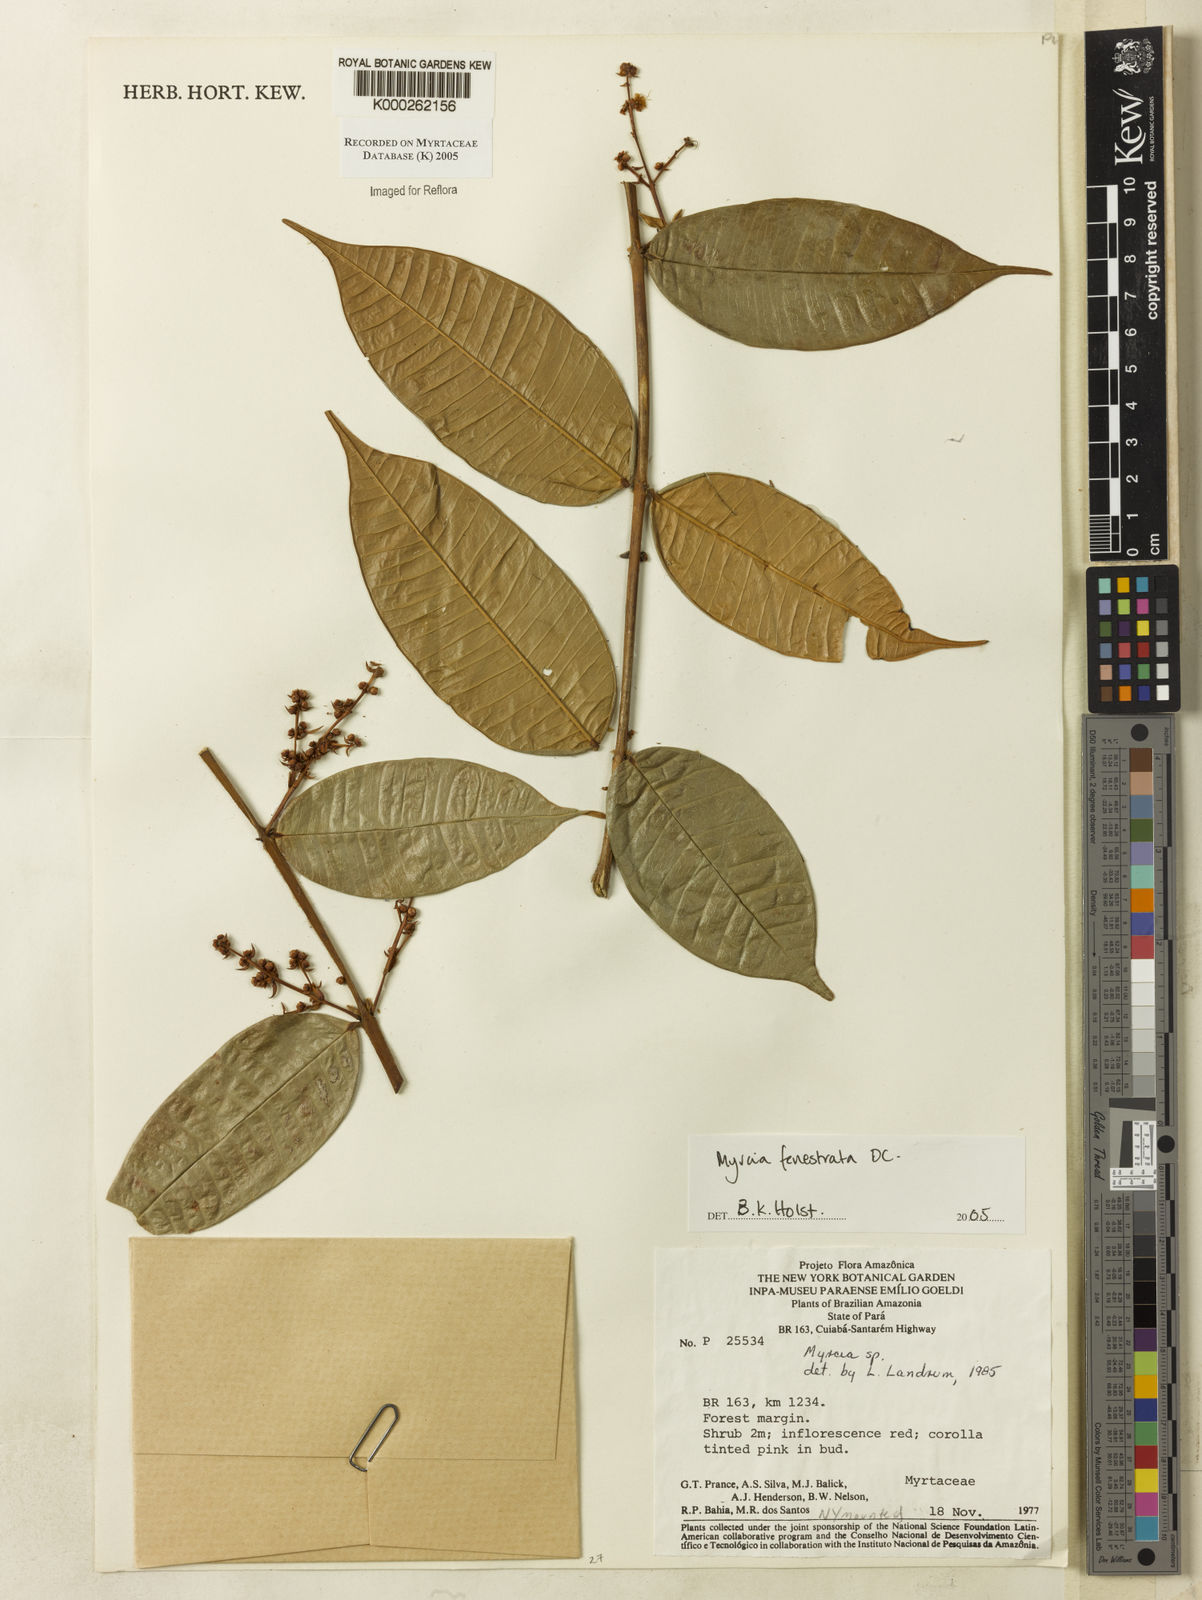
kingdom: Plantae
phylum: Tracheophyta
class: Magnoliopsida
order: Myrtales
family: Myrtaceae
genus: Myrcia
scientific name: Myrcia fenestrata
